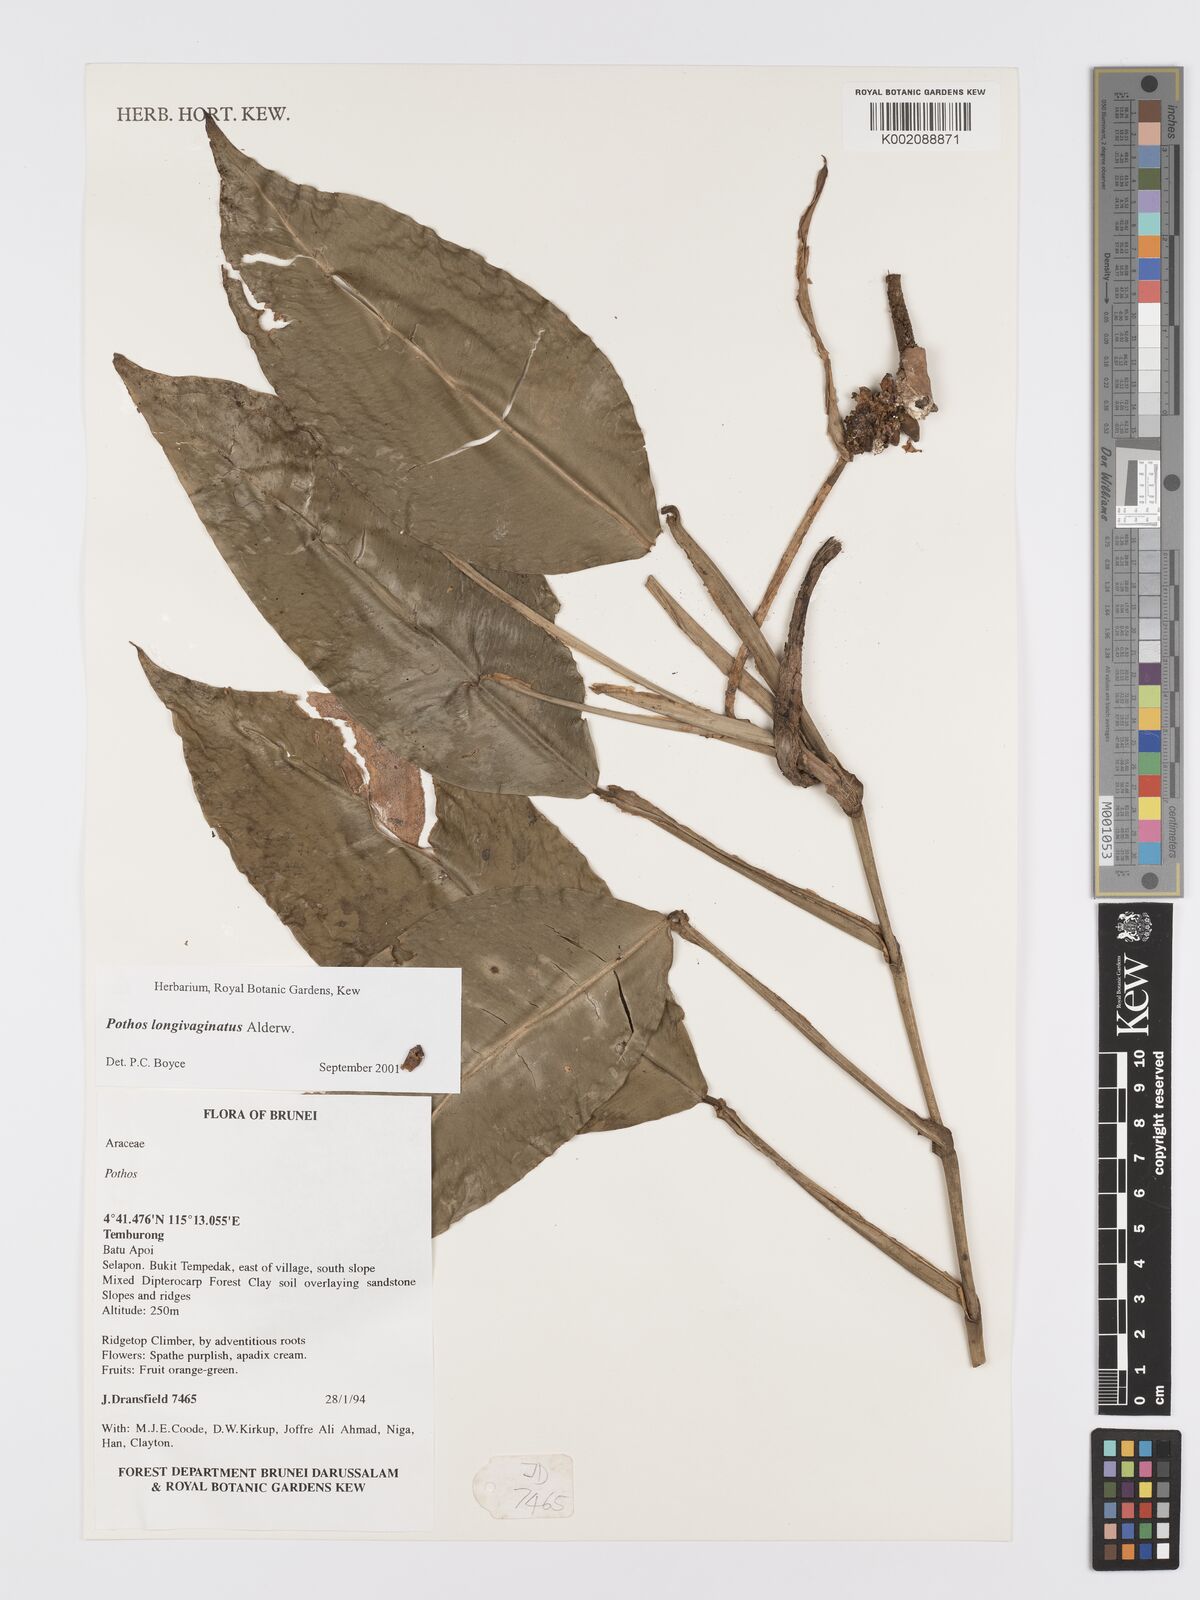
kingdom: Plantae
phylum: Tracheophyta
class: Liliopsida
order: Alismatales
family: Araceae
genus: Pothos
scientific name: Pothos longivaginatus
